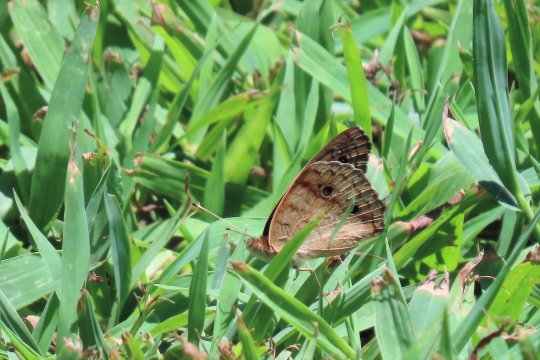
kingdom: Animalia
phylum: Arthropoda
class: Insecta
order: Lepidoptera
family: Nymphalidae
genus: Junonia
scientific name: Junonia coenia
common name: Common Buckeye
